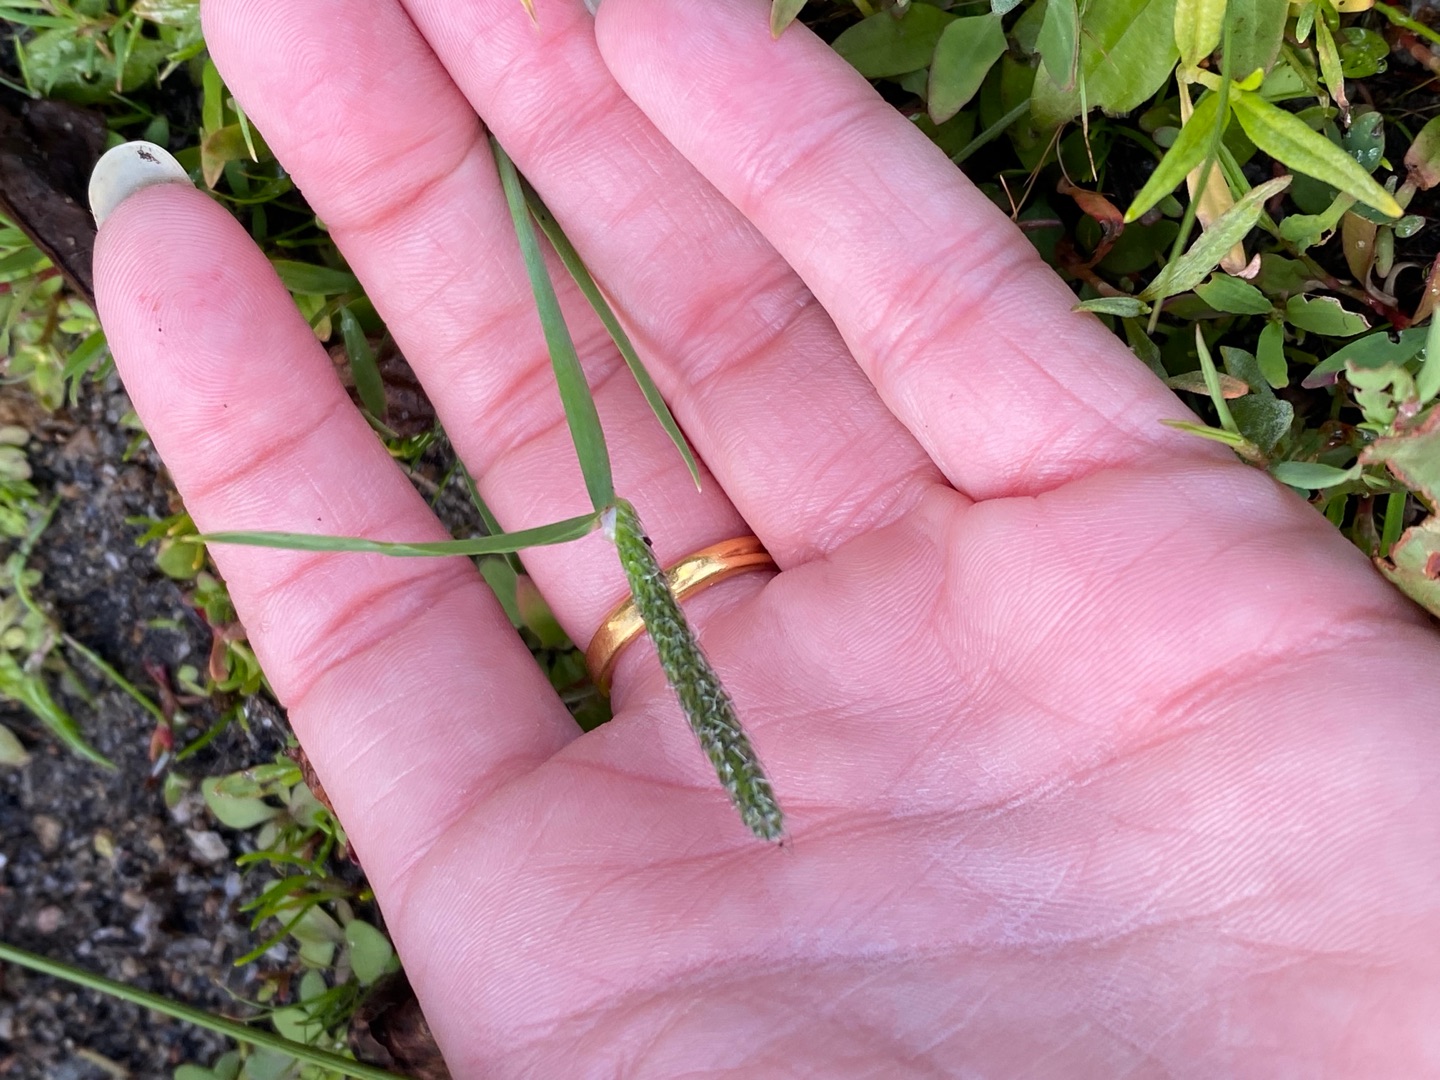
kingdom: Plantae
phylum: Tracheophyta
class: Liliopsida
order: Poales
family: Poaceae
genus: Alopecurus
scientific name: Alopecurus geniculatus
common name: Knæbøjet rævehale
